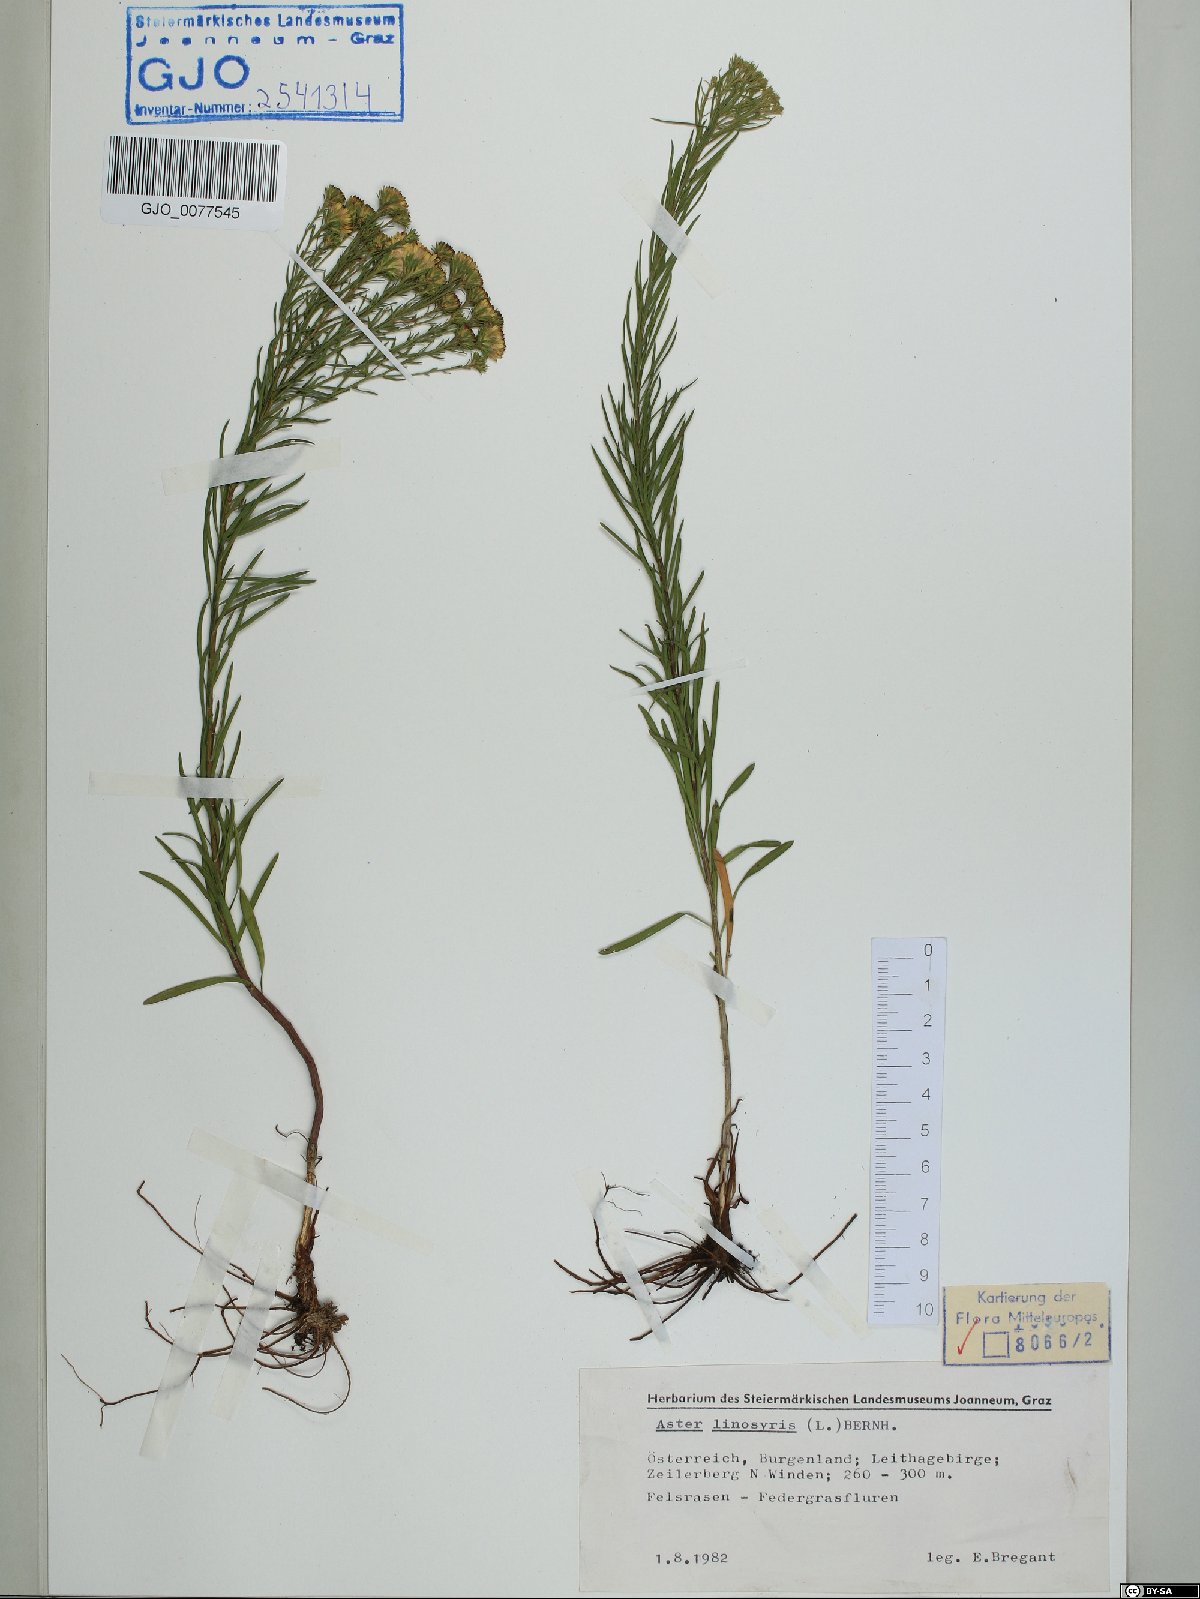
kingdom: Plantae
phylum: Tracheophyta
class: Magnoliopsida
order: Asterales
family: Asteraceae
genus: Galatella
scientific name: Galatella linosyris
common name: Goldilocks aster
